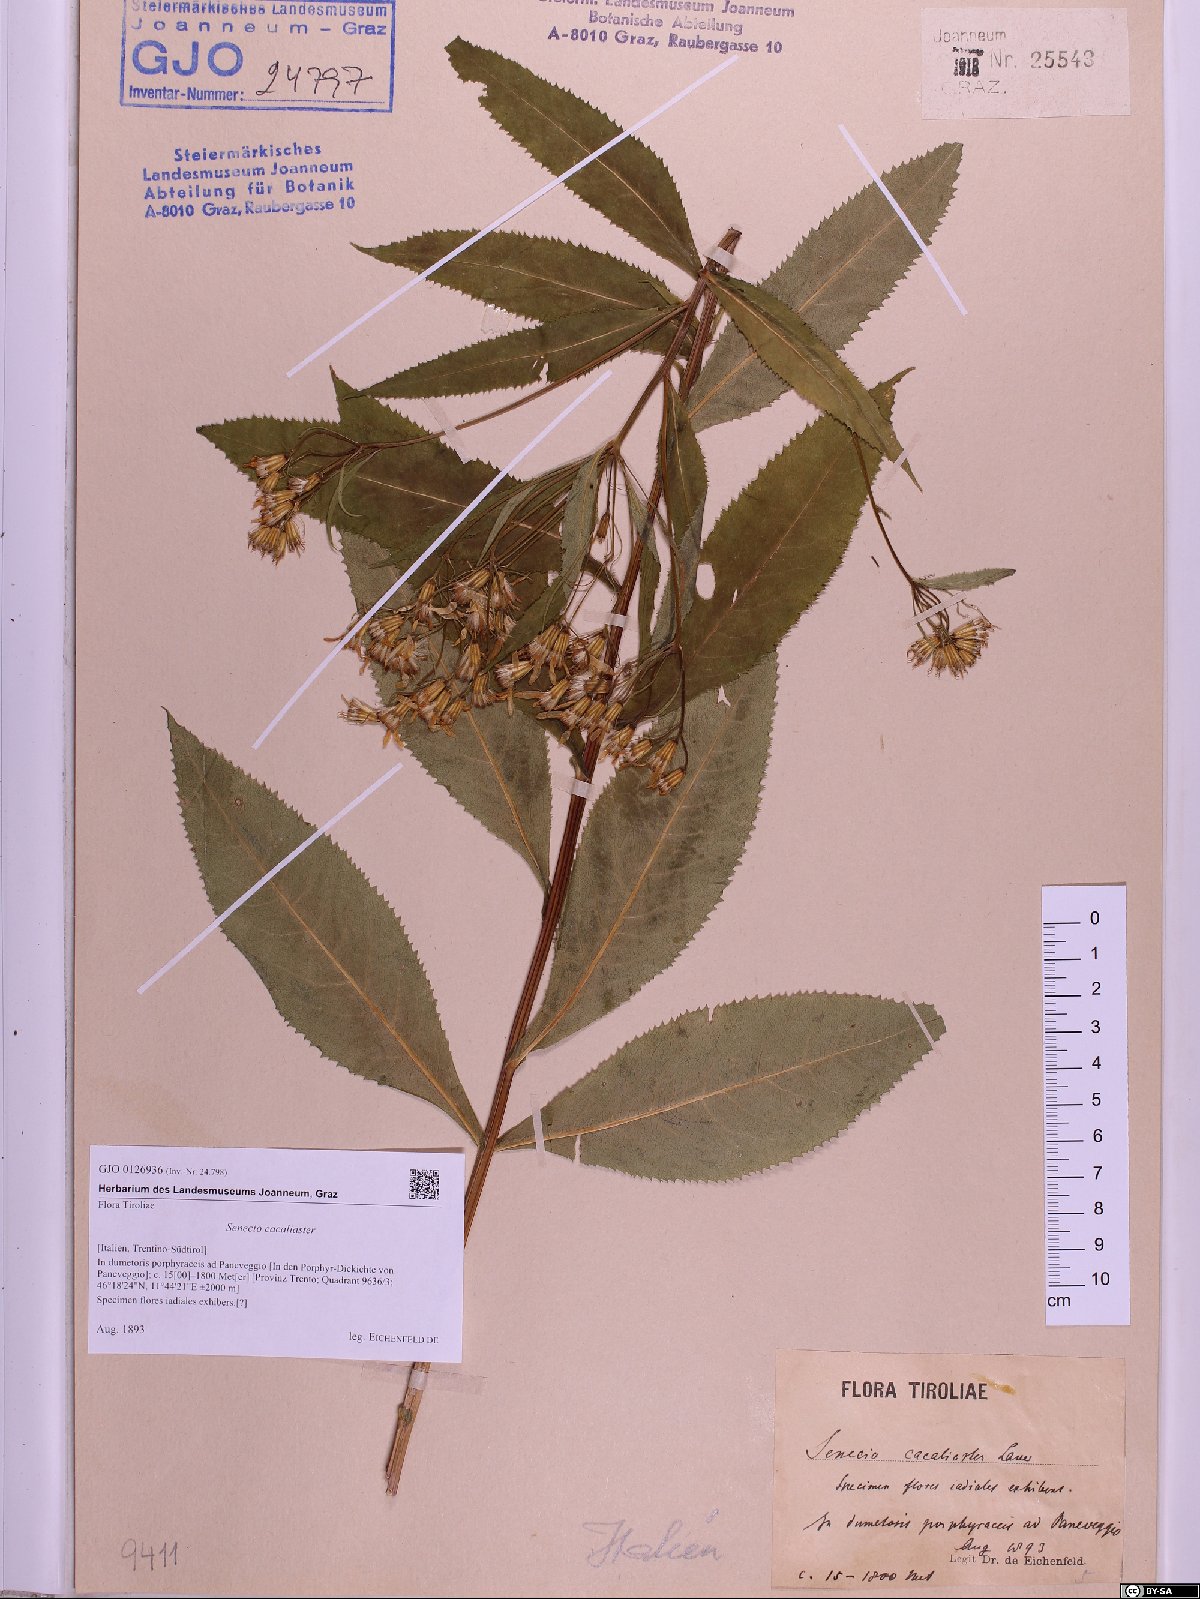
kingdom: Plantae
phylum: Tracheophyta
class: Magnoliopsida
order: Asterales
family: Asteraceae
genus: Senecio
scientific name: Senecio cacaliaster
